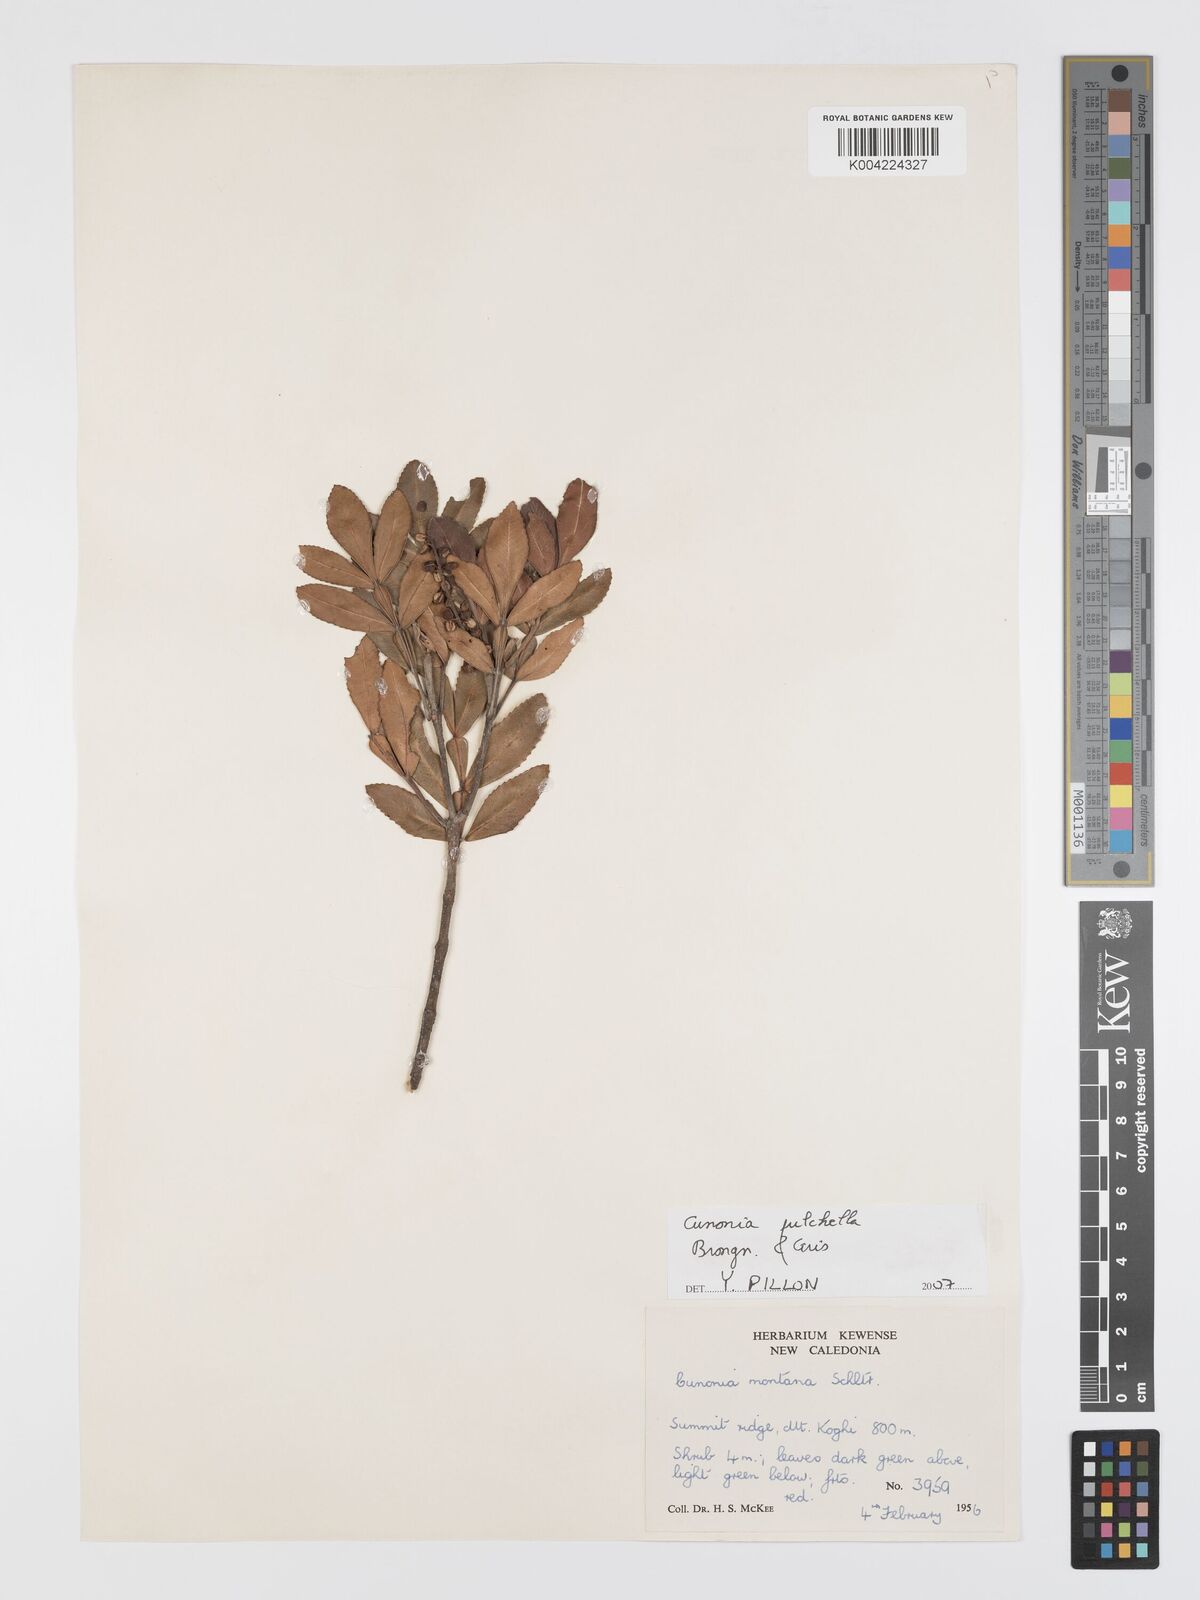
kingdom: Plantae
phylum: Tracheophyta
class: Magnoliopsida
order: Oxalidales
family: Cunoniaceae
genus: Cunonia
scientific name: Cunonia pulchella
